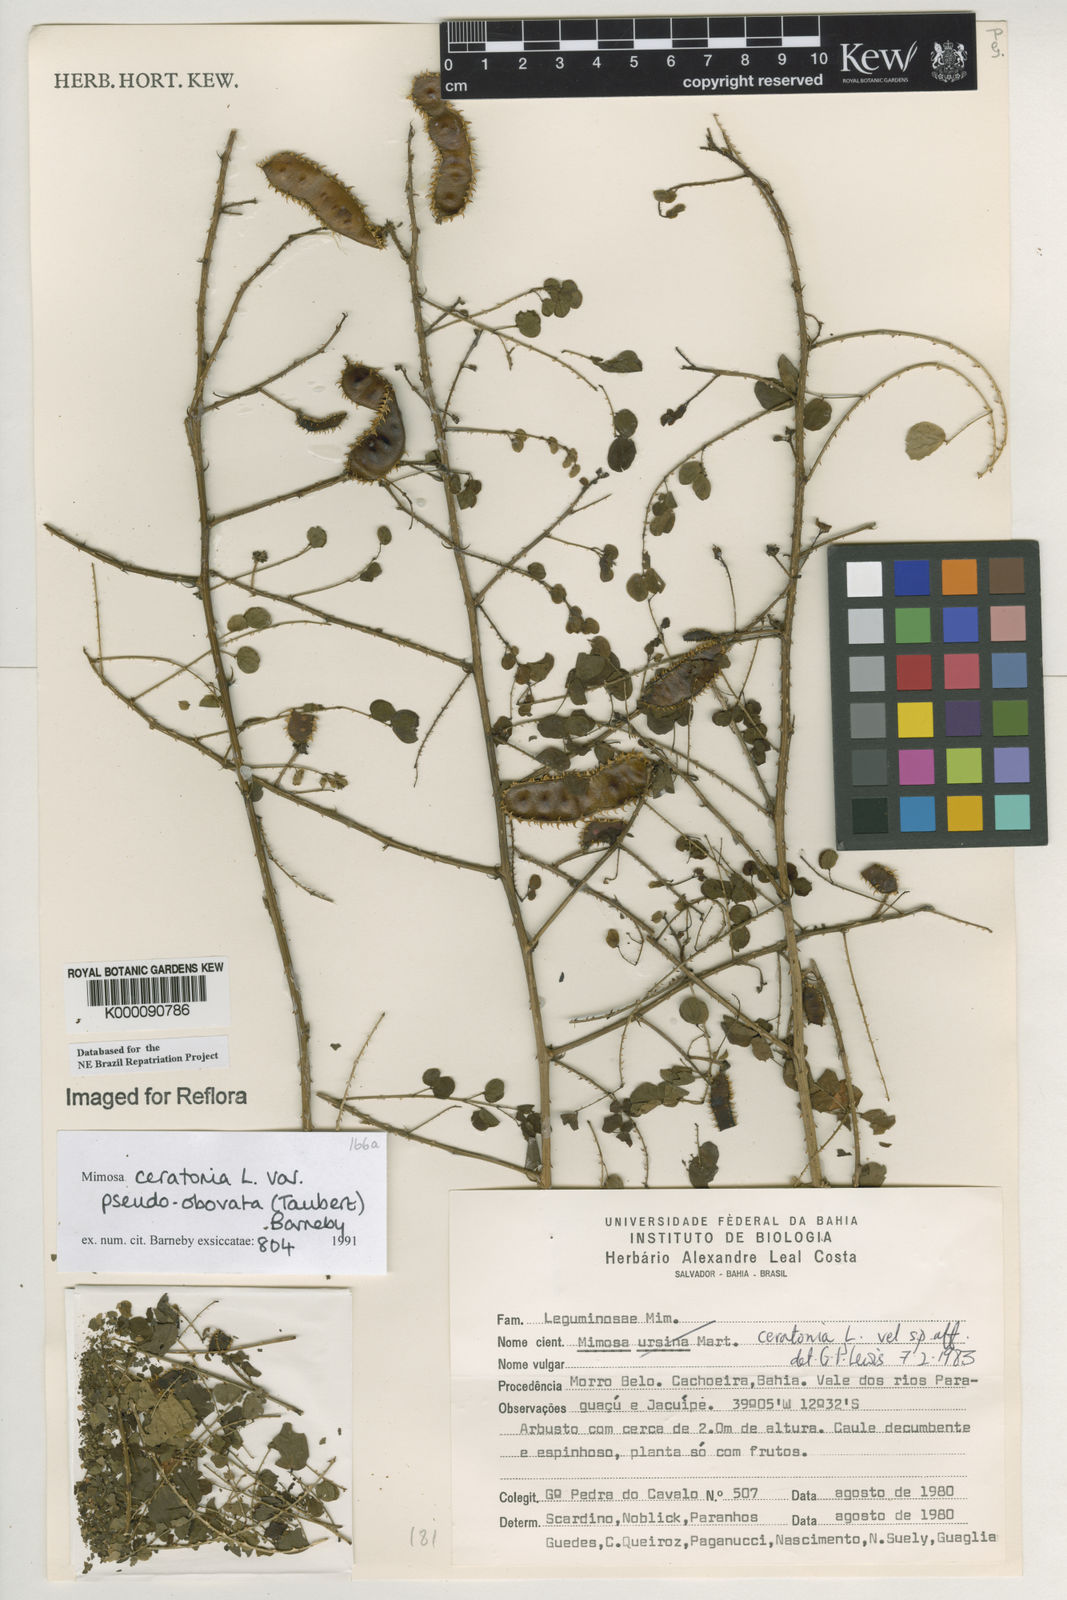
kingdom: Plantae
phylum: Tracheophyta
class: Magnoliopsida
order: Fabales
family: Fabaceae
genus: Mimosa
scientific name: Mimosa ceratonia
